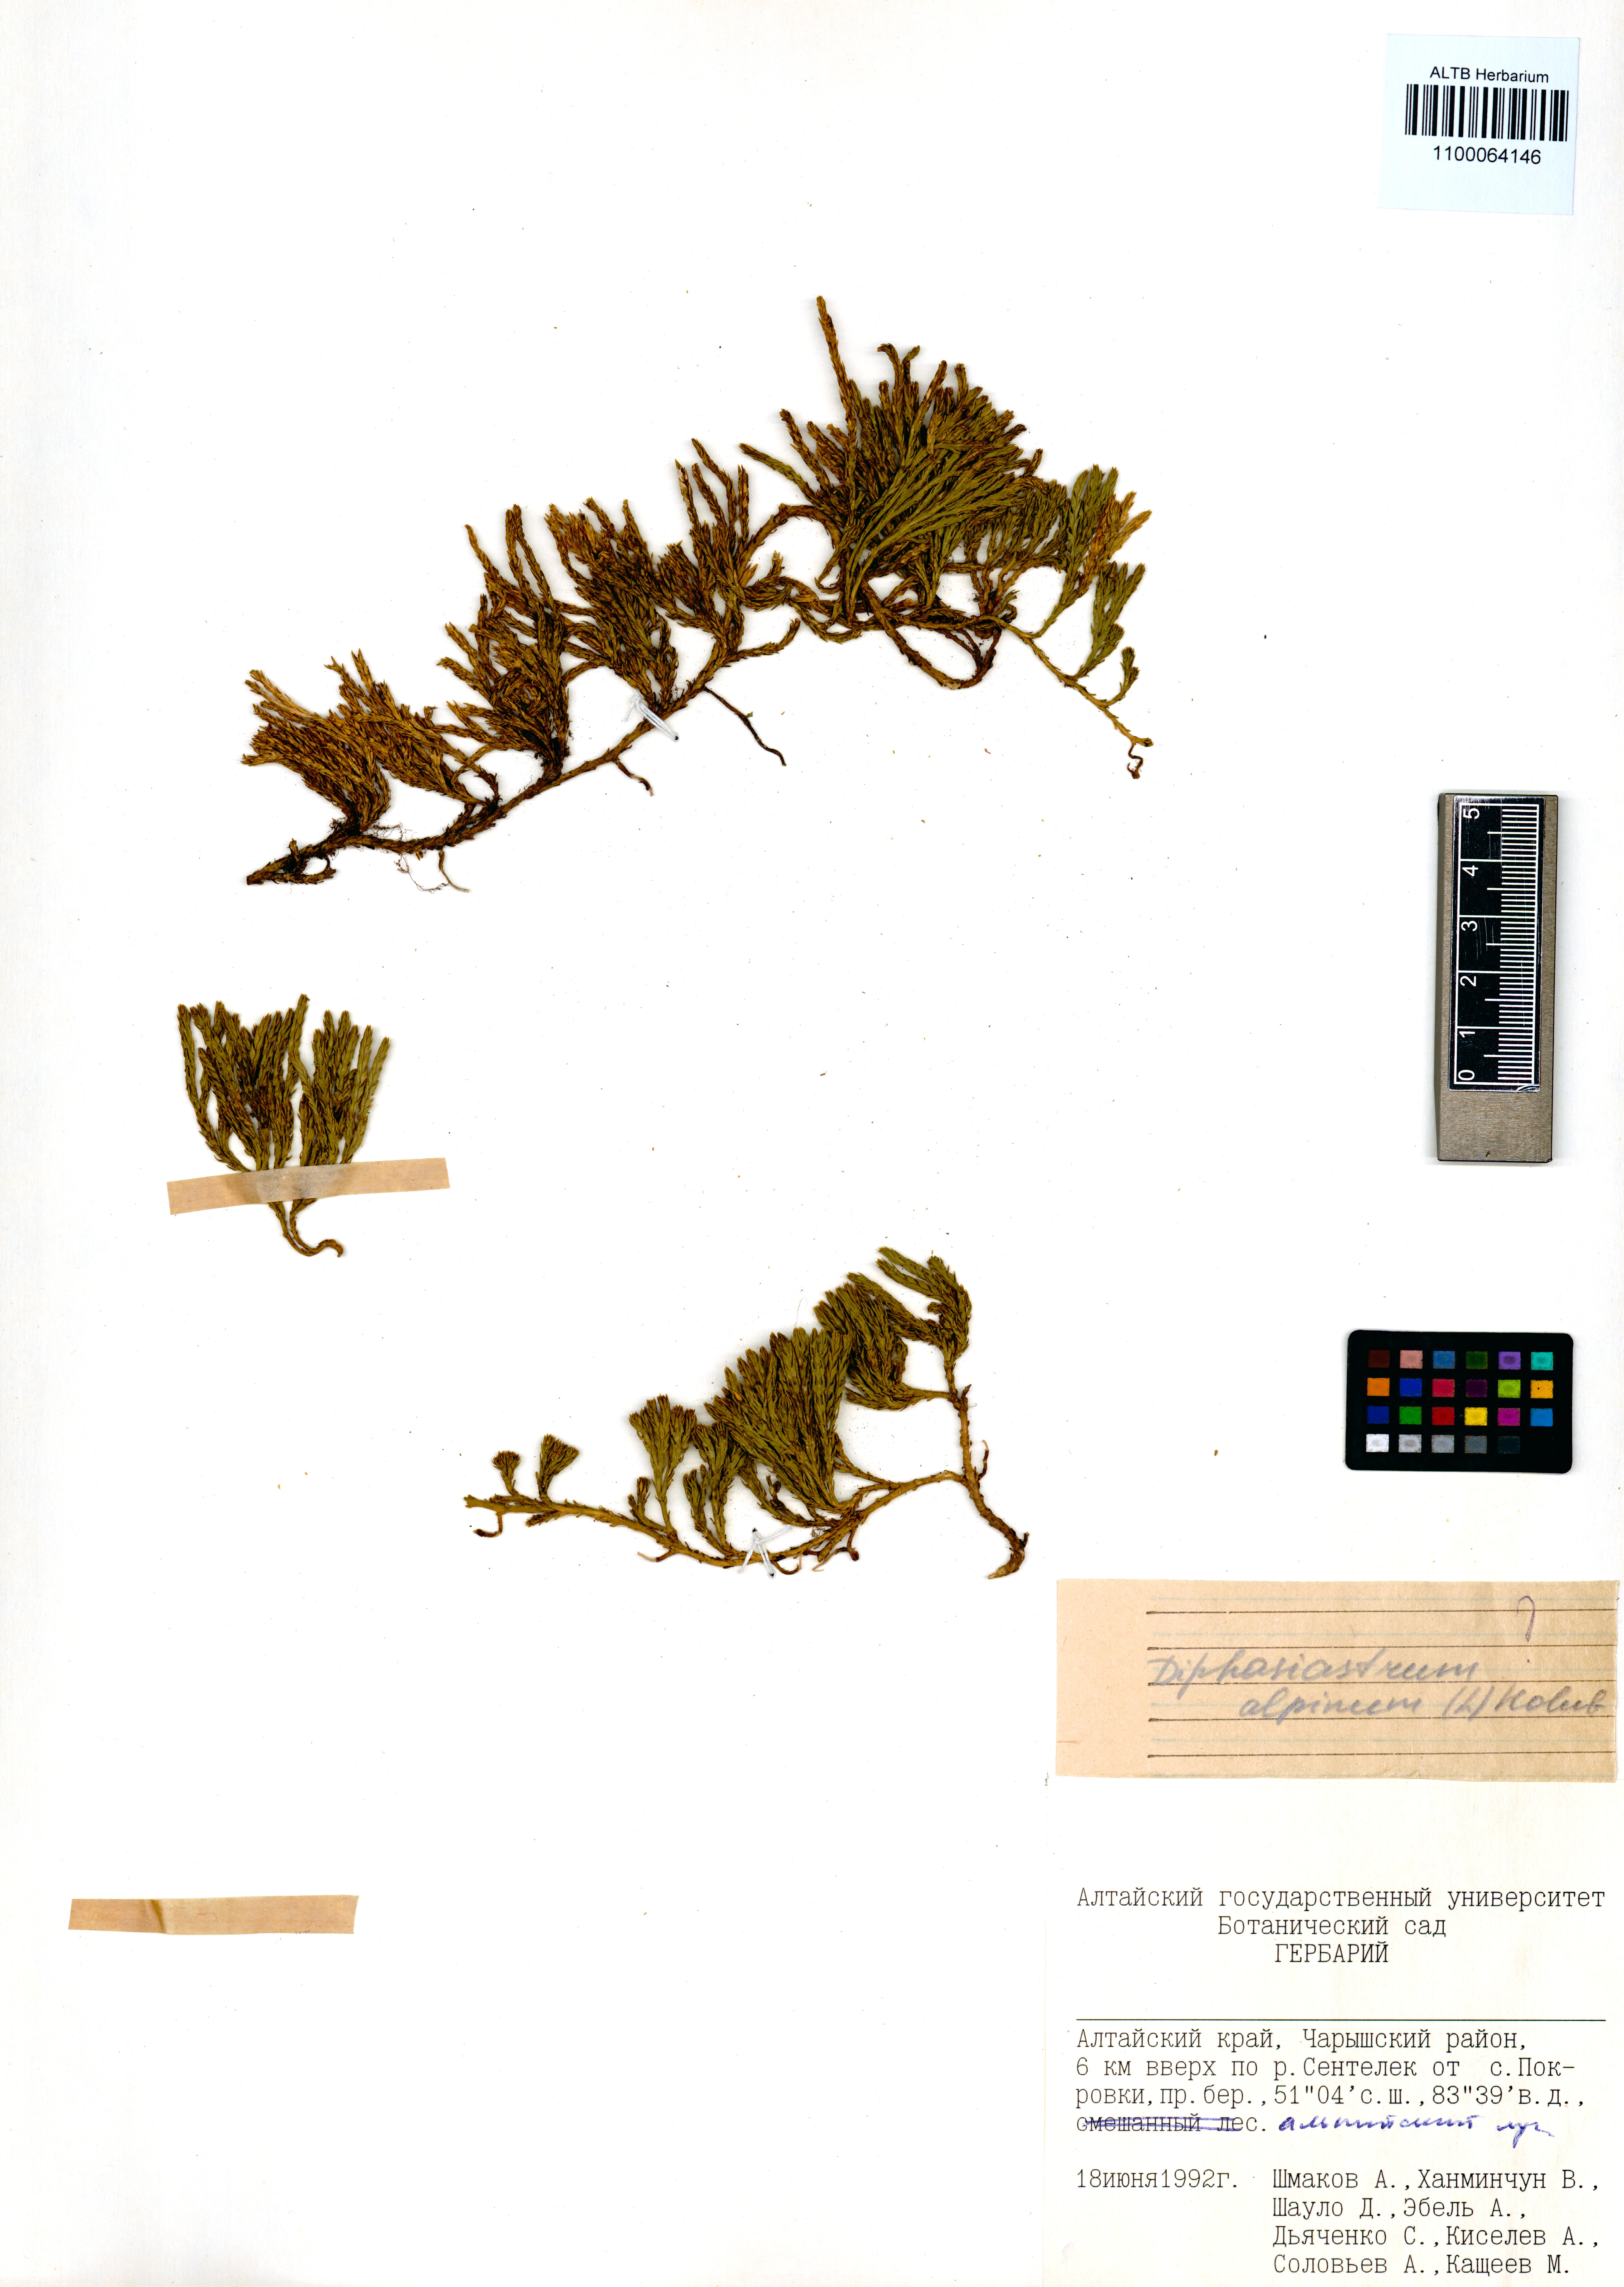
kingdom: Plantae
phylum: Tracheophyta
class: Lycopodiopsida
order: Lycopodiales
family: Lycopodiaceae
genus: Diphasiastrum
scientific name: Diphasiastrum alpinum
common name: Alpine clubmoss
